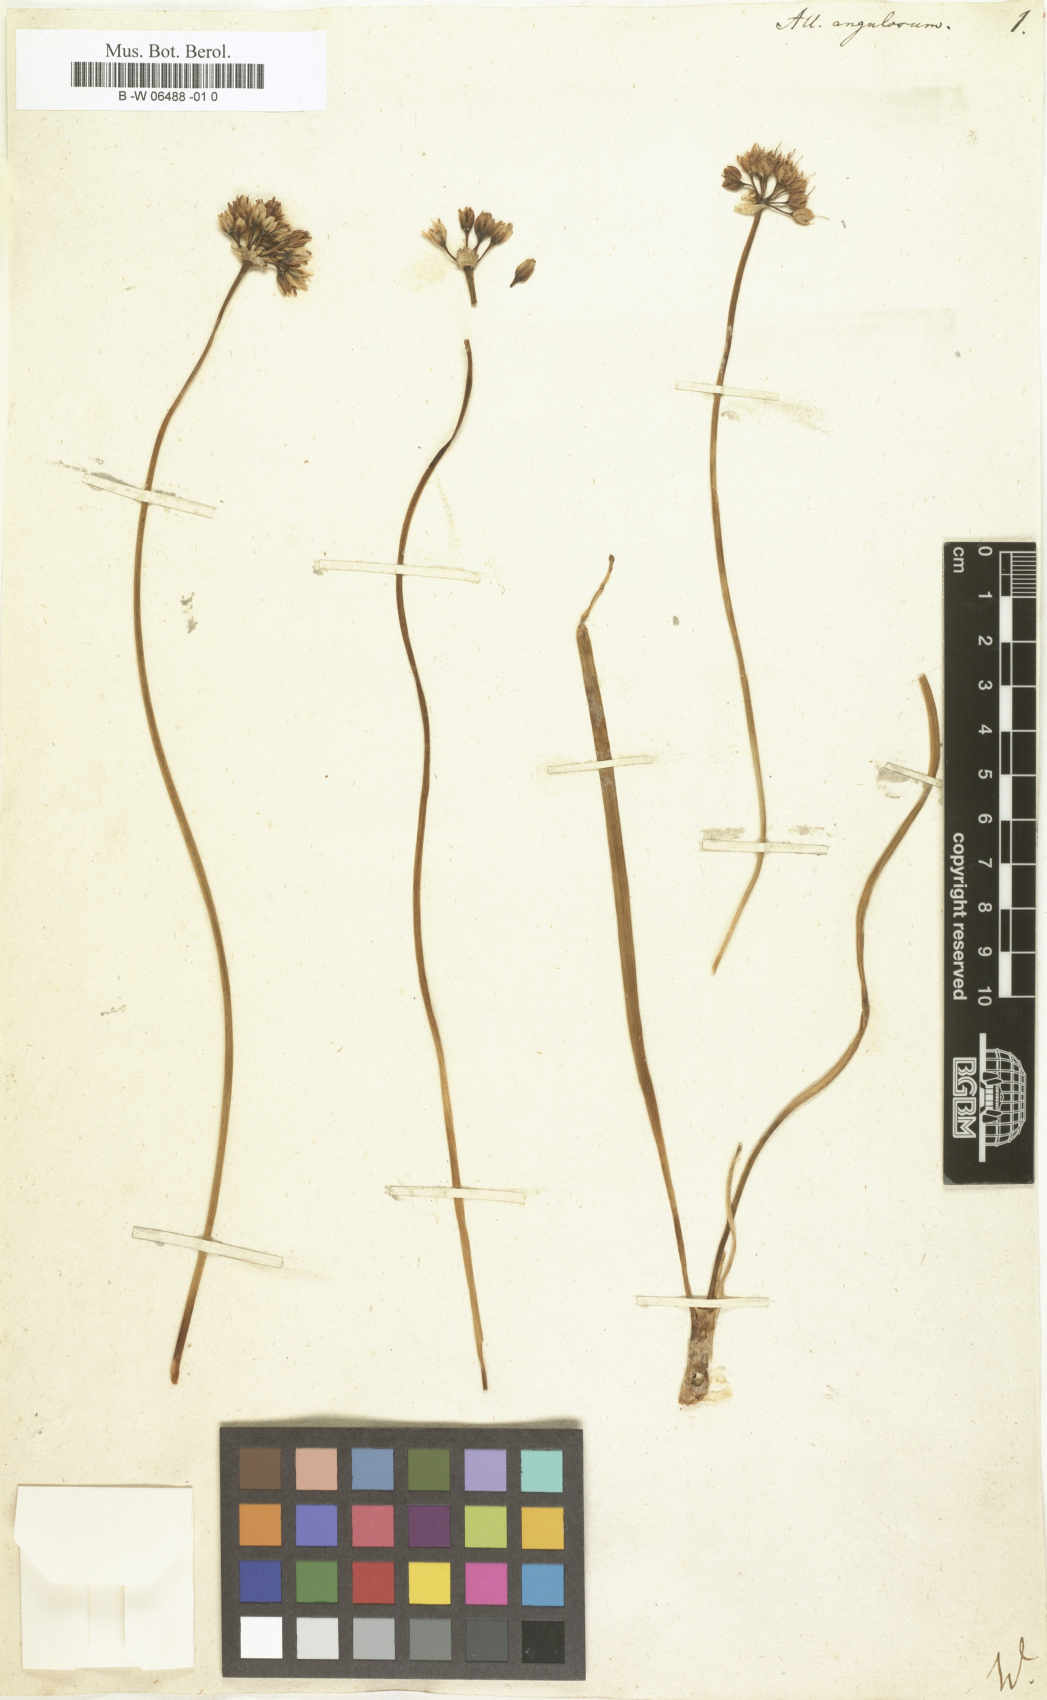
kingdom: Plantae
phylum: Tracheophyta
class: Liliopsida
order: Asparagales
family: Amaryllidaceae
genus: Allium
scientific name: Allium angulosum
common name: Mouse garlic
